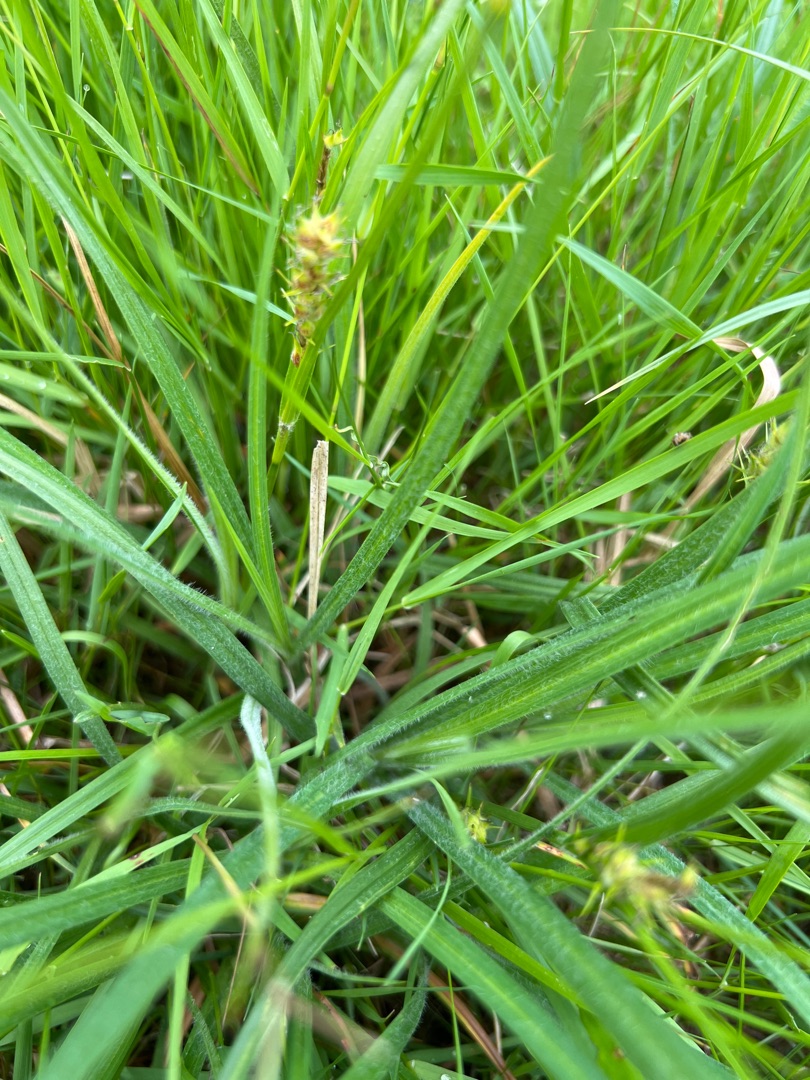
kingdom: Plantae
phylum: Tracheophyta
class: Liliopsida
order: Poales
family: Cyperaceae
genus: Carex
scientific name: Carex hirta
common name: Håret star
